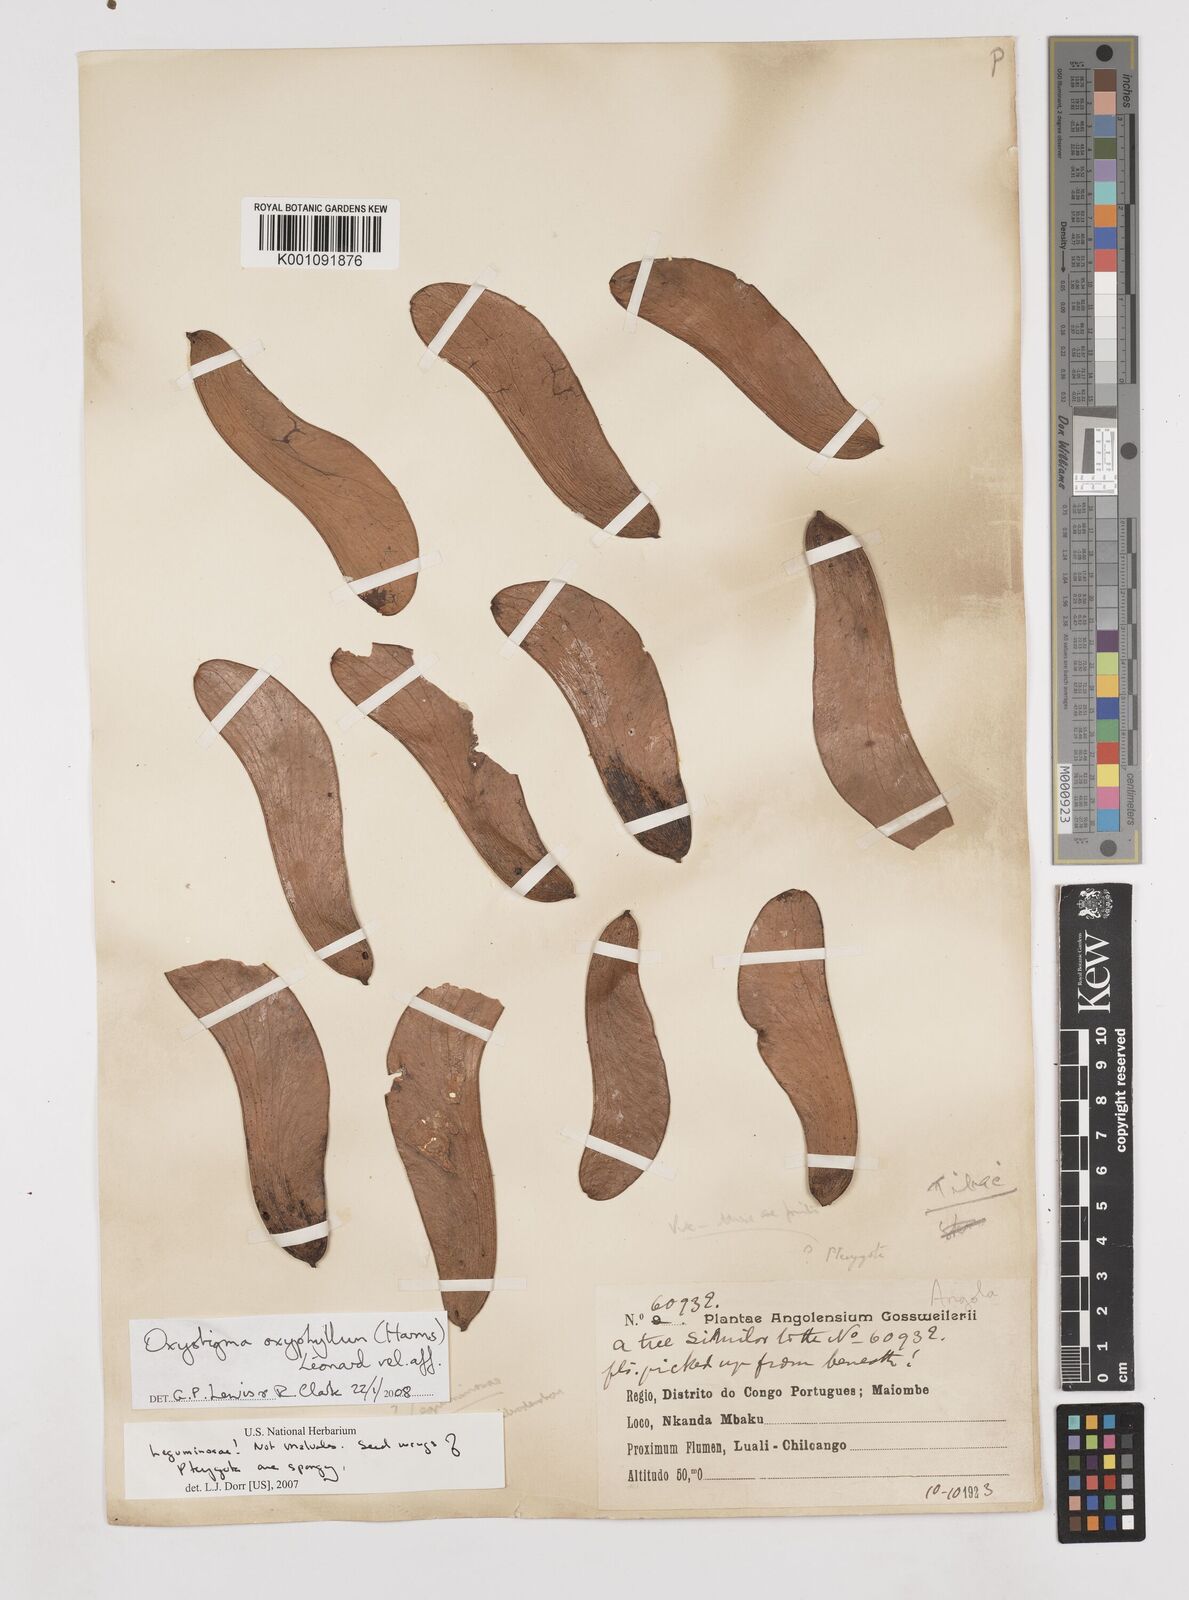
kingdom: Animalia
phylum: Arthropoda
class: Insecta
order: Odonata
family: Heteragrionidae
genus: Oxystigma
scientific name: Oxystigma
